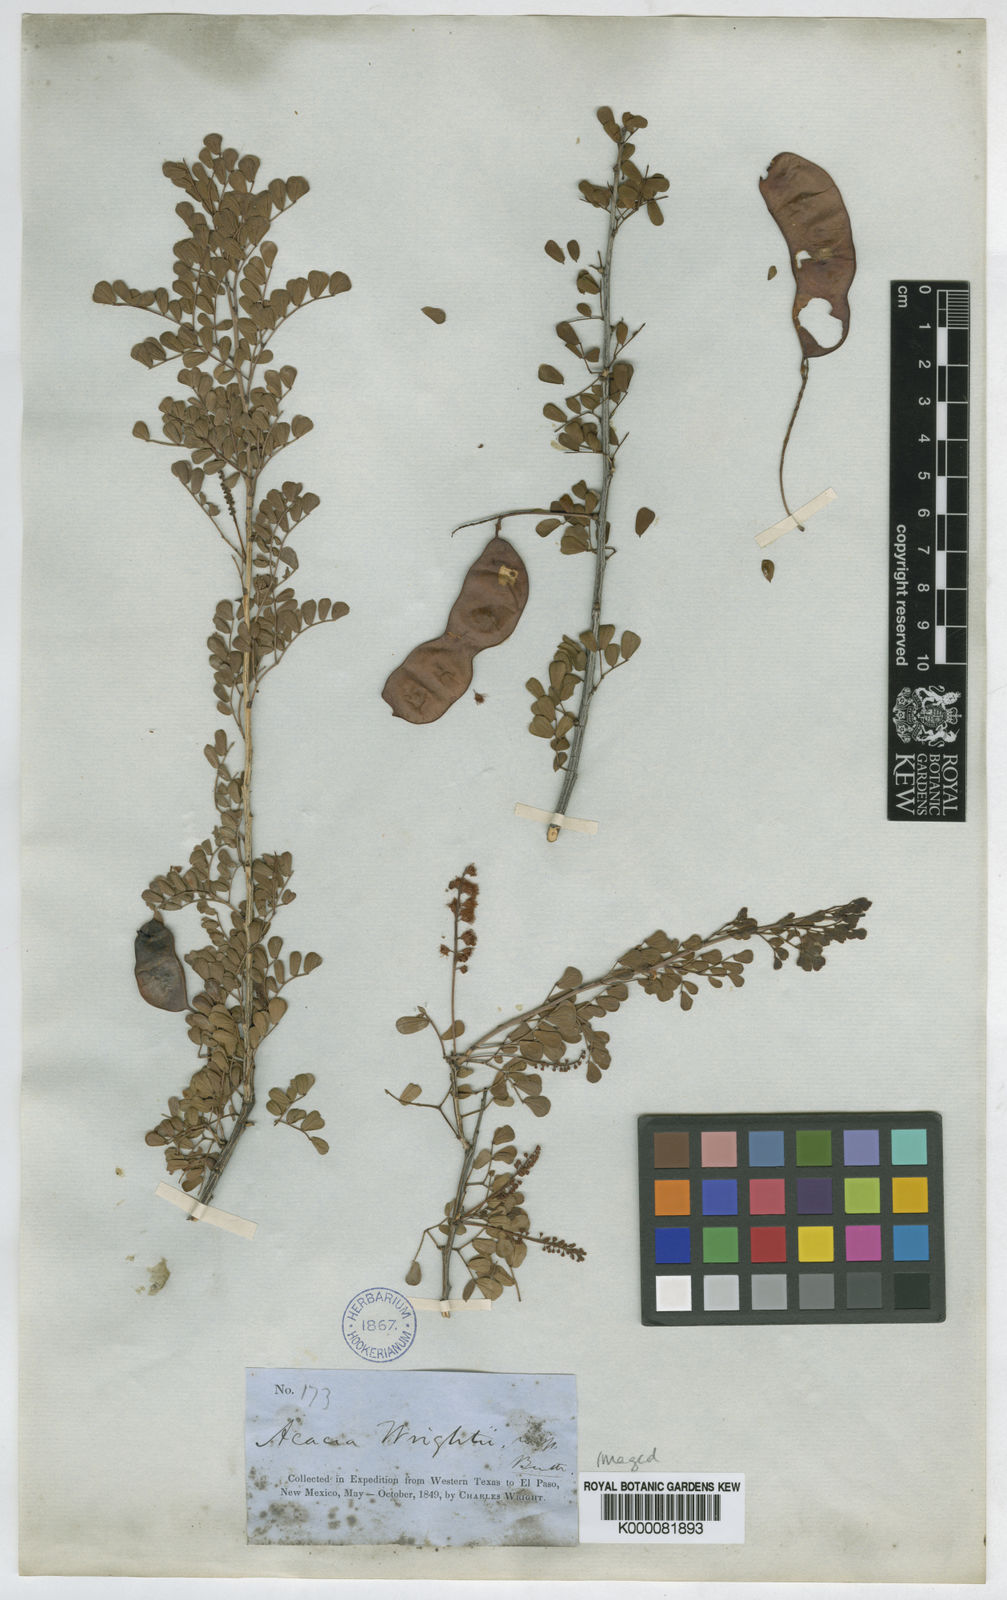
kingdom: Plantae
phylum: Tracheophyta
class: Magnoliopsida
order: Fabales
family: Fabaceae
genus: Senegalia
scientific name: Senegalia wrightii
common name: Texas cat's-claw
